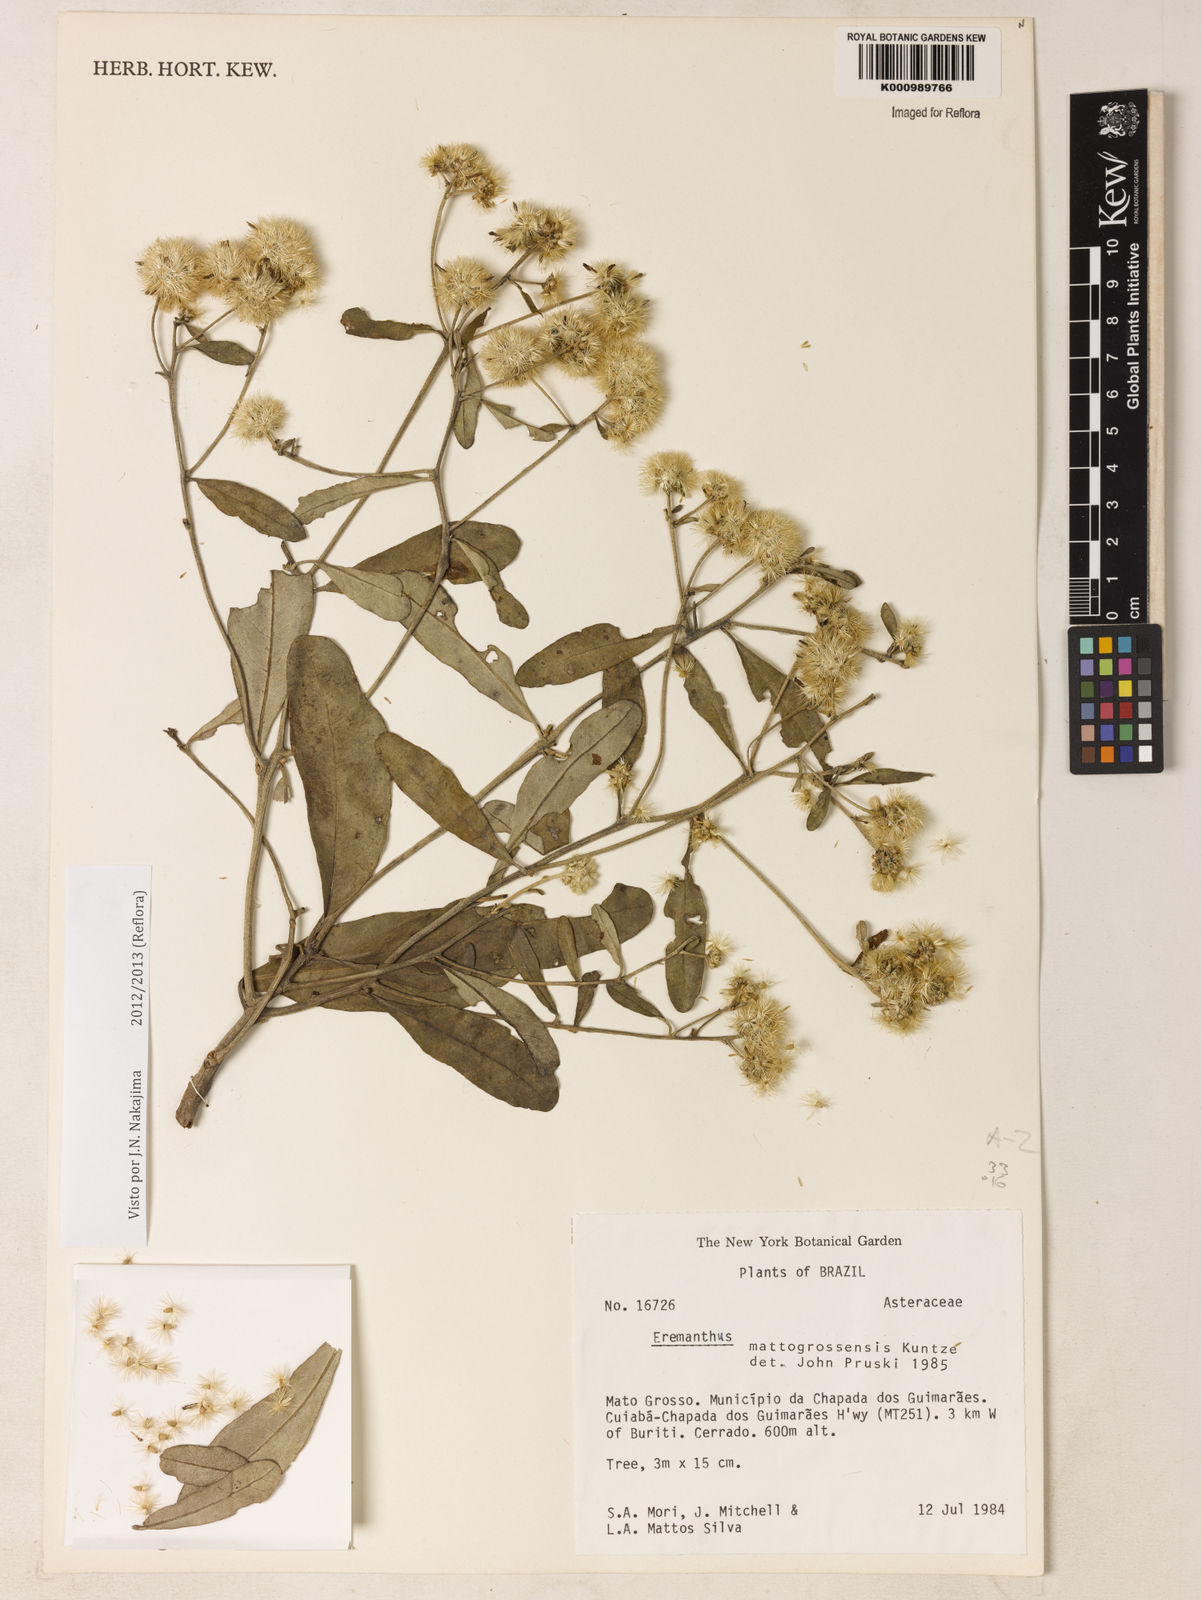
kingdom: Plantae
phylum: Tracheophyta
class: Magnoliopsida
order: Asterales
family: Asteraceae
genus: Eremanthus
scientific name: Eremanthus mattogrossensis
